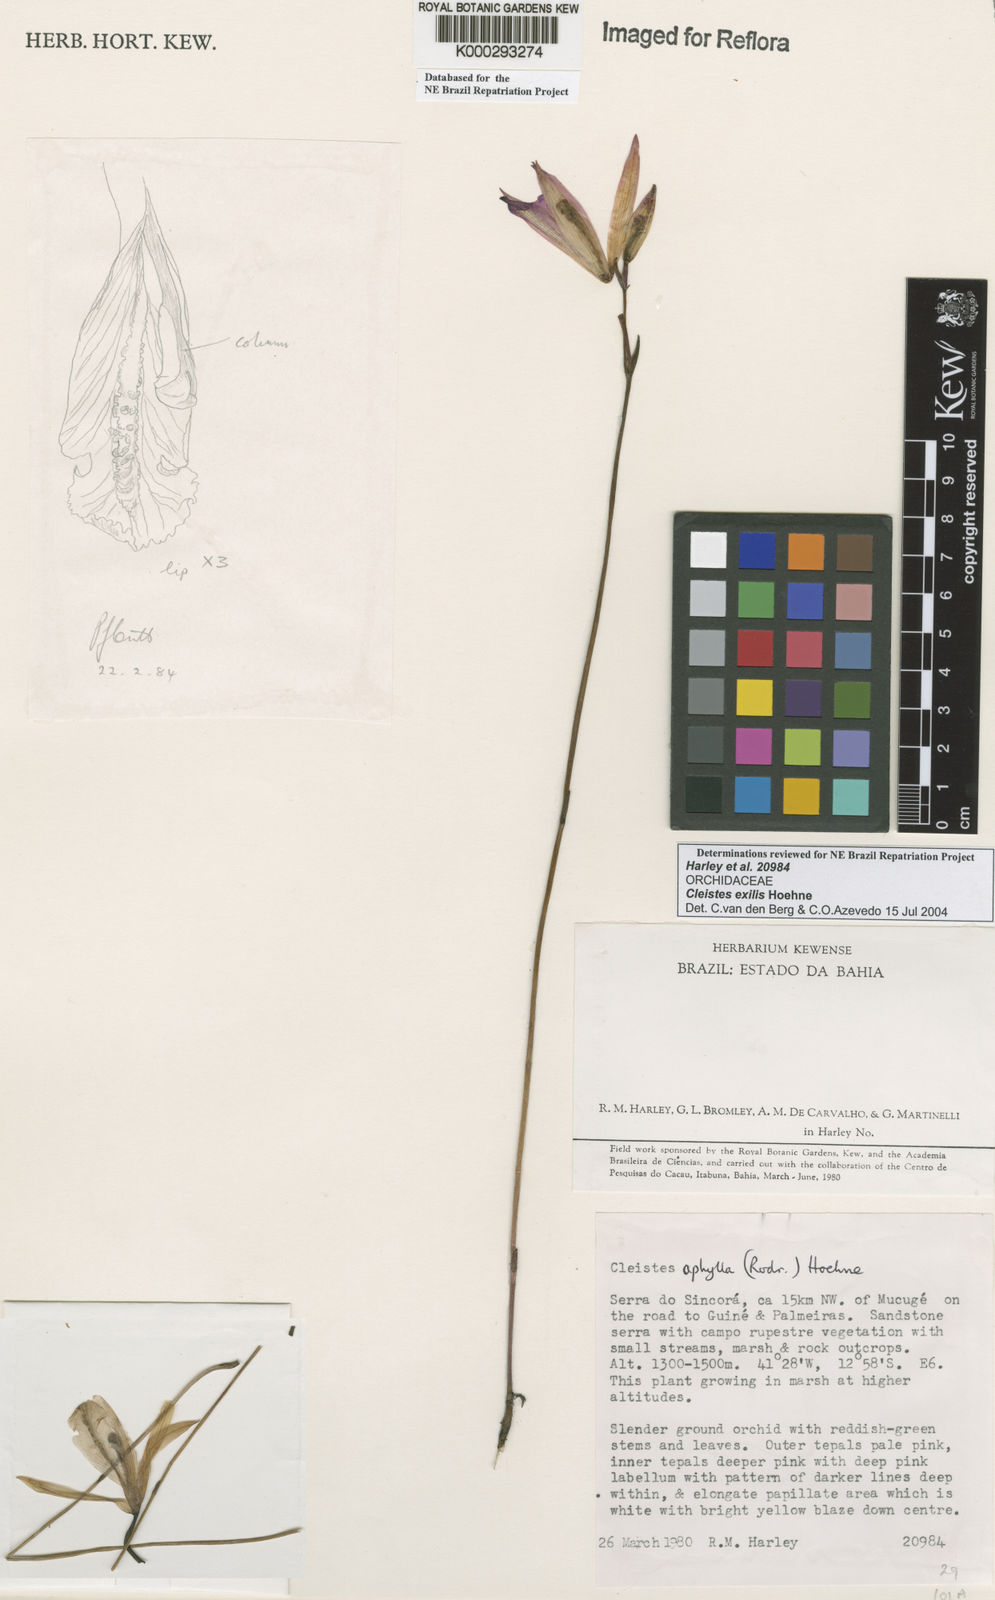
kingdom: Plantae
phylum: Tracheophyta
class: Liliopsida
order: Asparagales
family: Orchidaceae
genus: Cleistes
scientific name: Cleistes exilis
